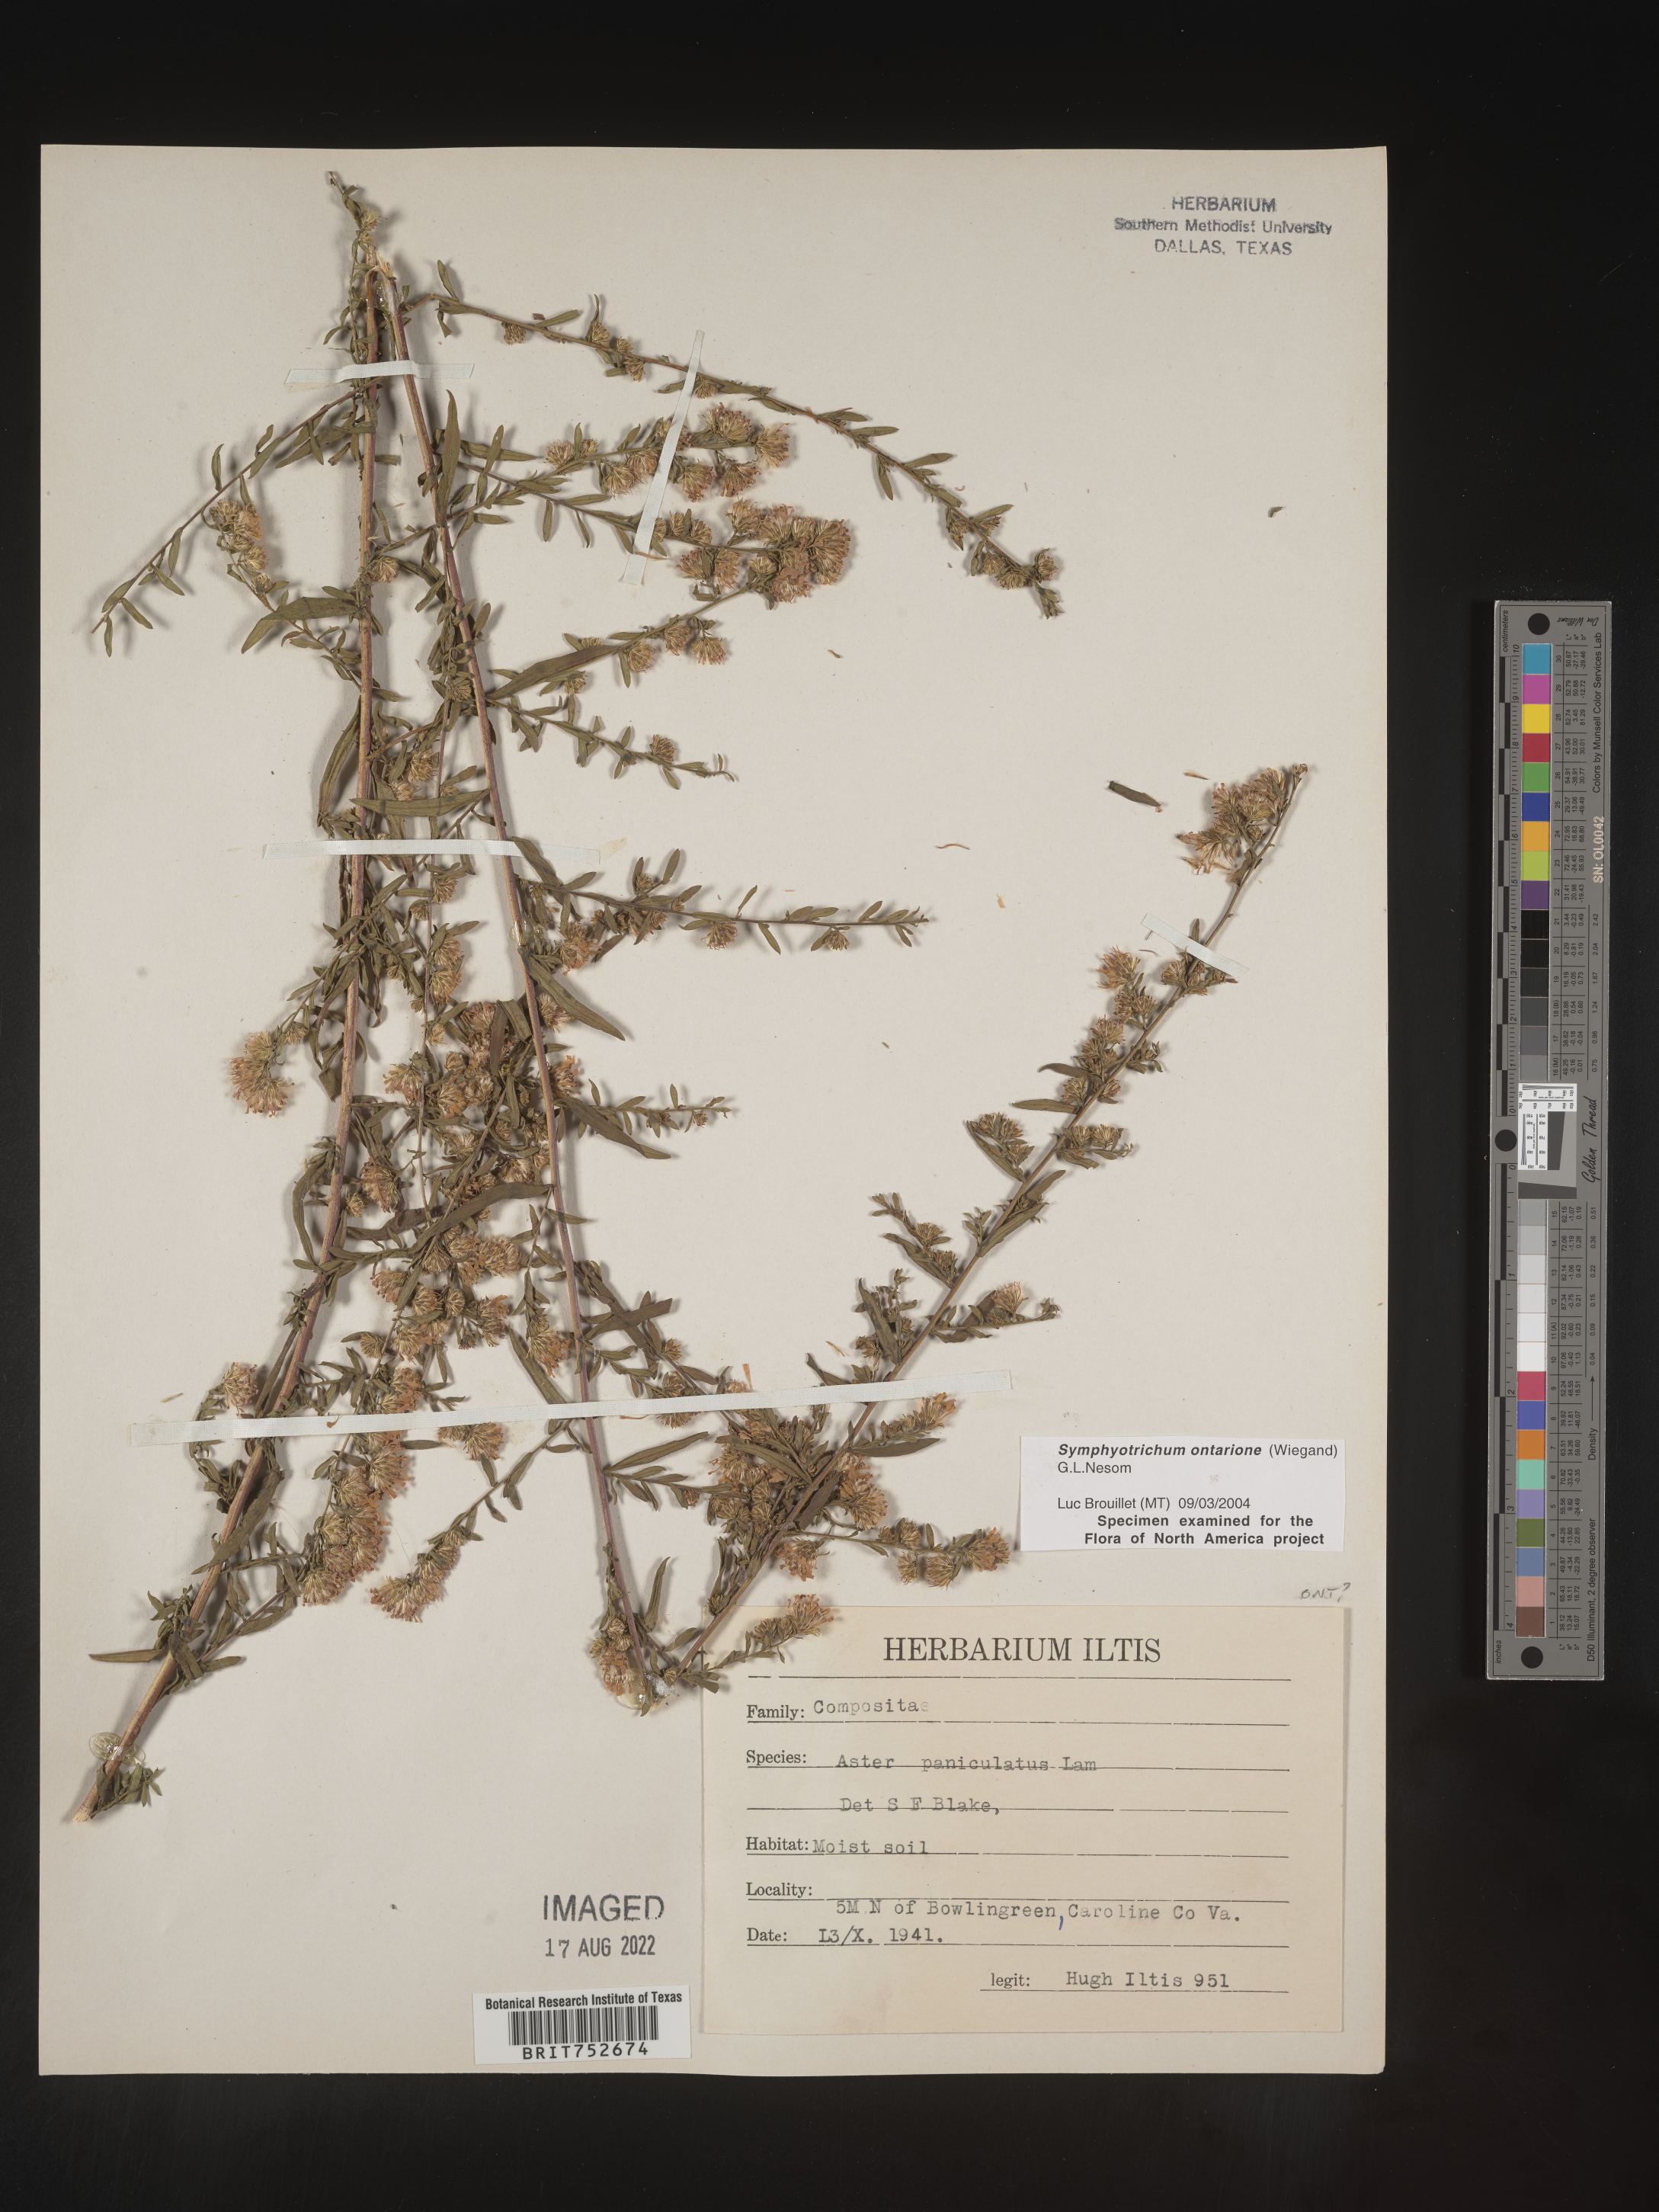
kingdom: Plantae
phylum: Tracheophyta
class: Magnoliopsida
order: Asterales
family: Asteraceae
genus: Symphyotrichum
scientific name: Symphyotrichum lanceolatum
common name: Panicled aster
